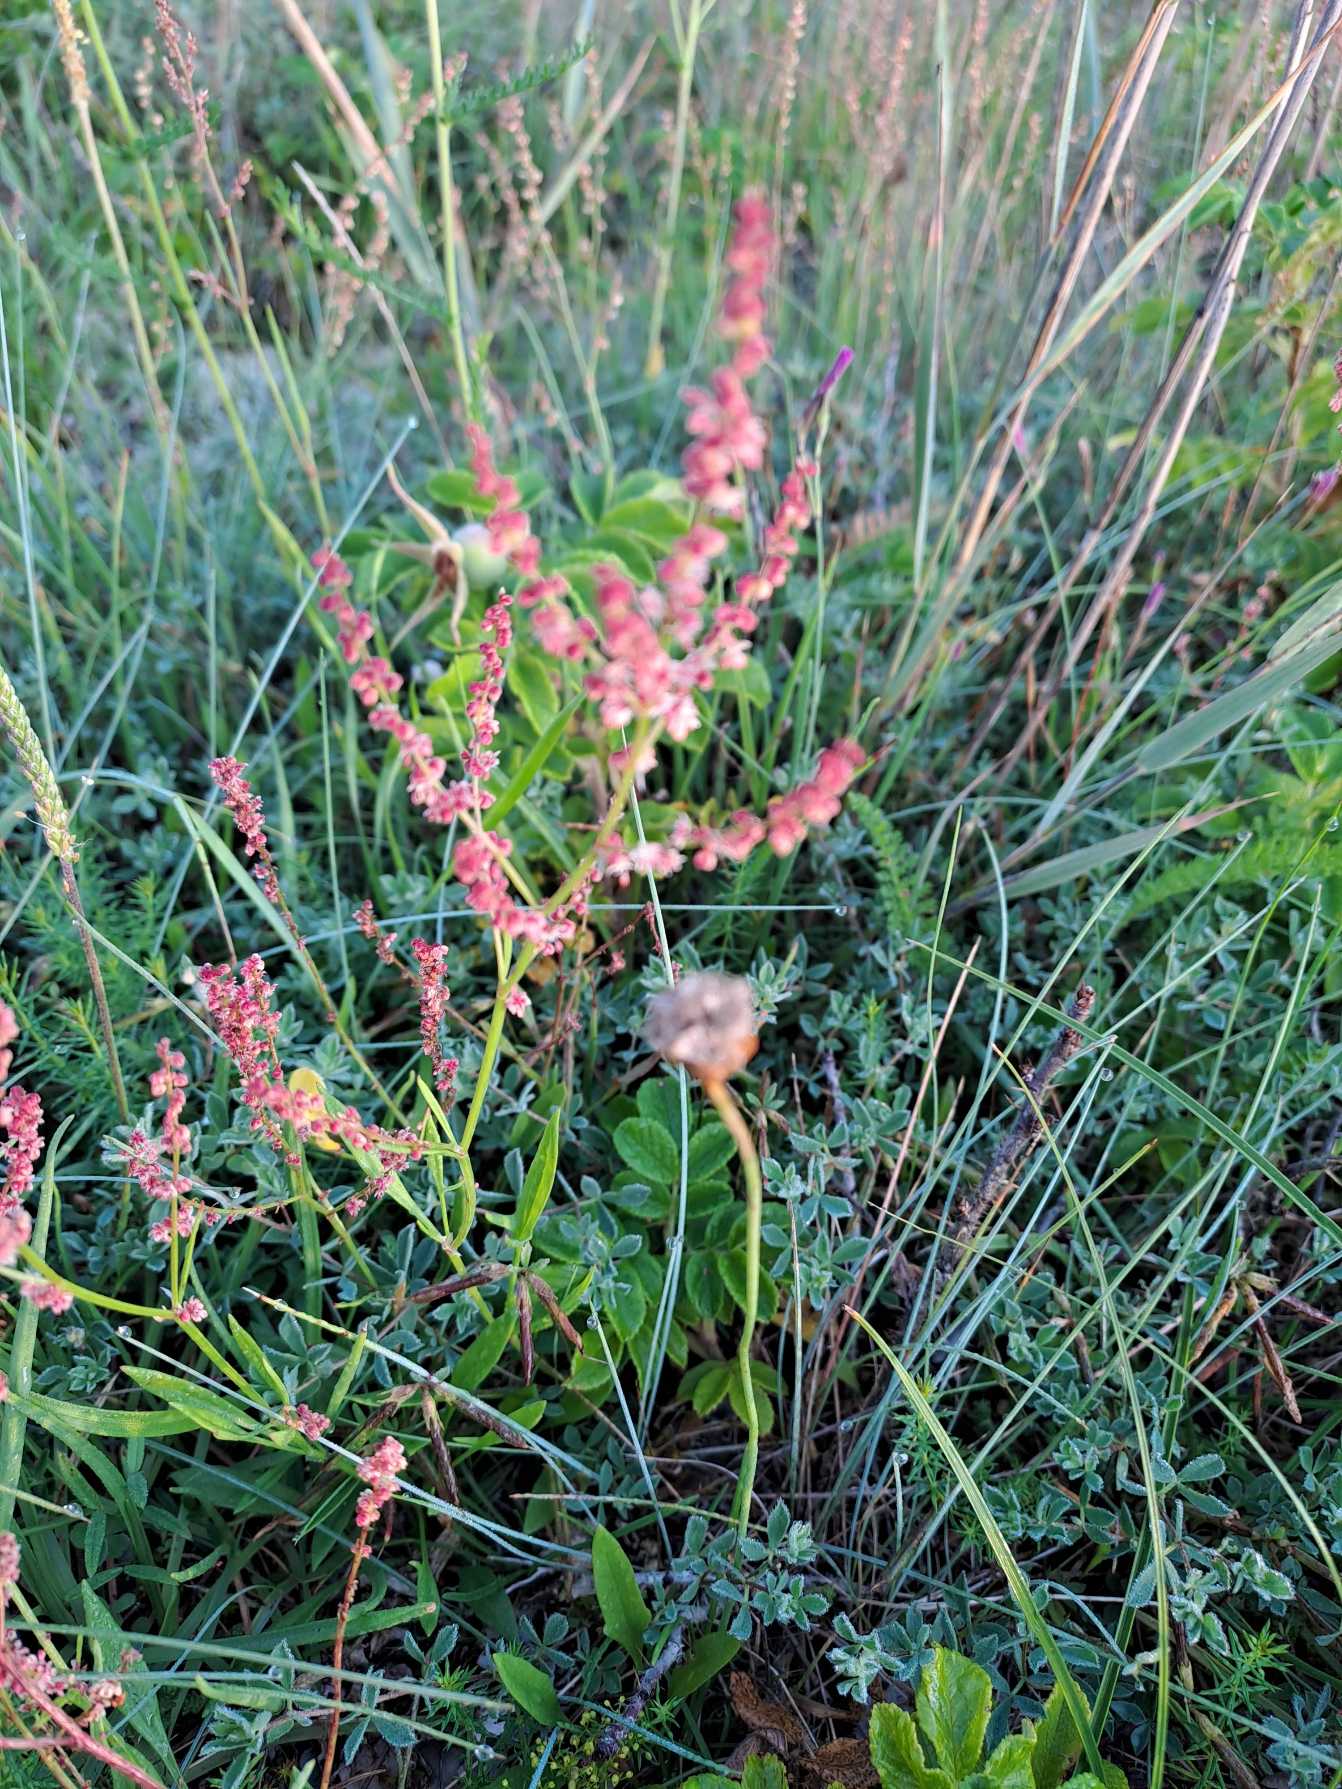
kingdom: Plantae
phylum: Tracheophyta
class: Magnoliopsida
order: Caryophyllales
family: Polygonaceae
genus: Rumex
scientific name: Rumex acetosella
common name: Rødknæ
